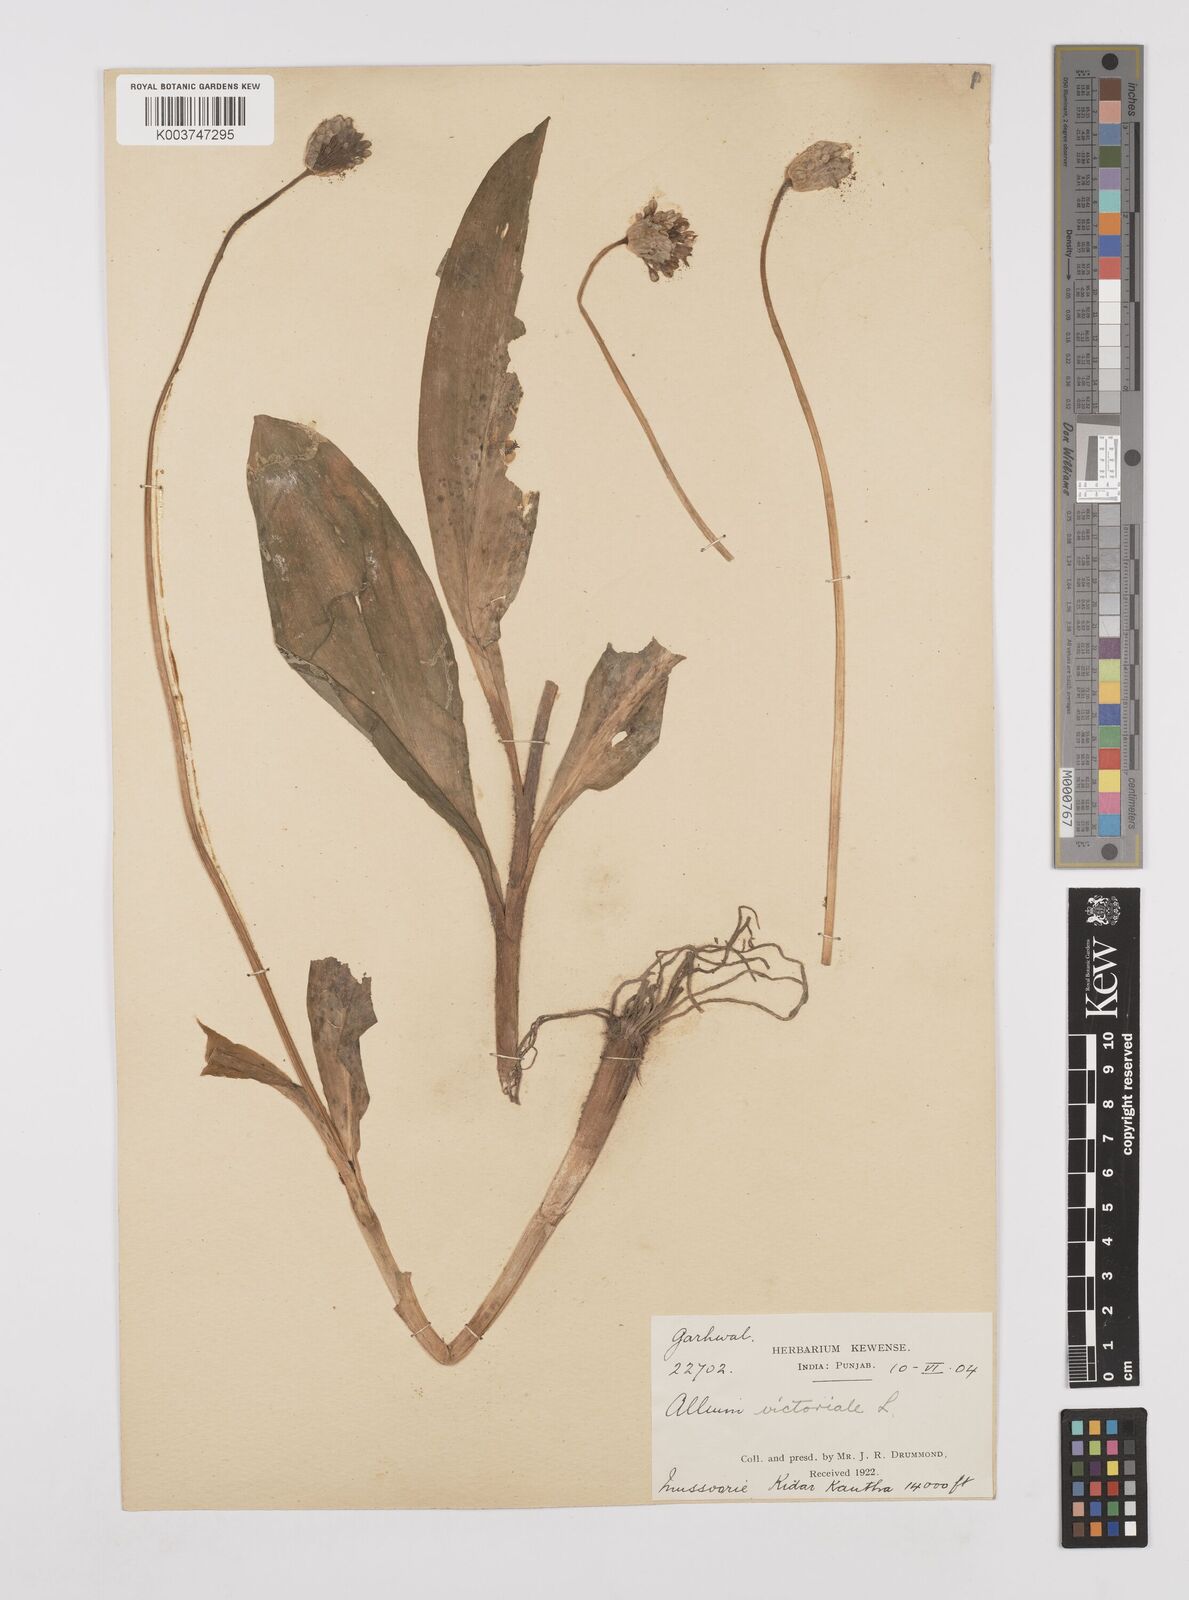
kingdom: Plantae
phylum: Tracheophyta
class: Liliopsida
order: Asparagales
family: Amaryllidaceae
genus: Allium
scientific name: Allium victorialis
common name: Alpine leek
